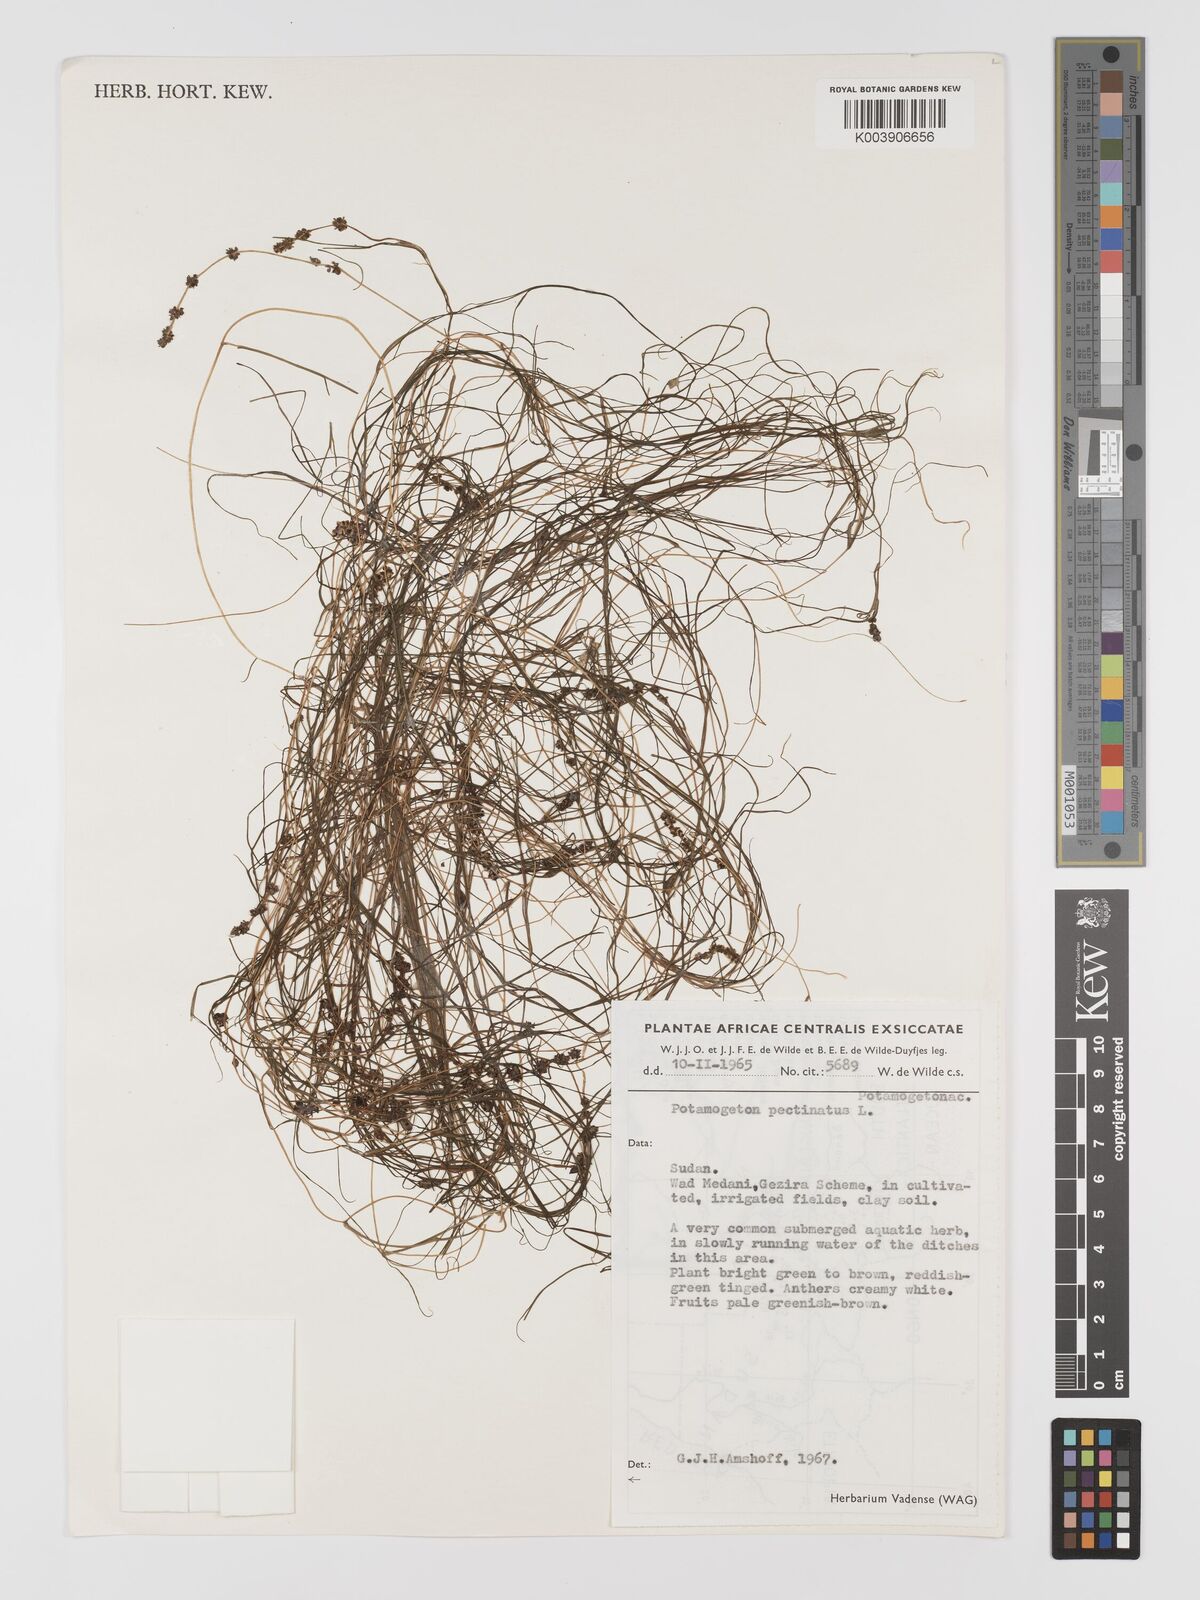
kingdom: Plantae
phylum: Tracheophyta
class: Liliopsida
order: Alismatales
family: Potamogetonaceae
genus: Stuckenia
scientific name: Stuckenia pectinata
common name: Sago pondweed
